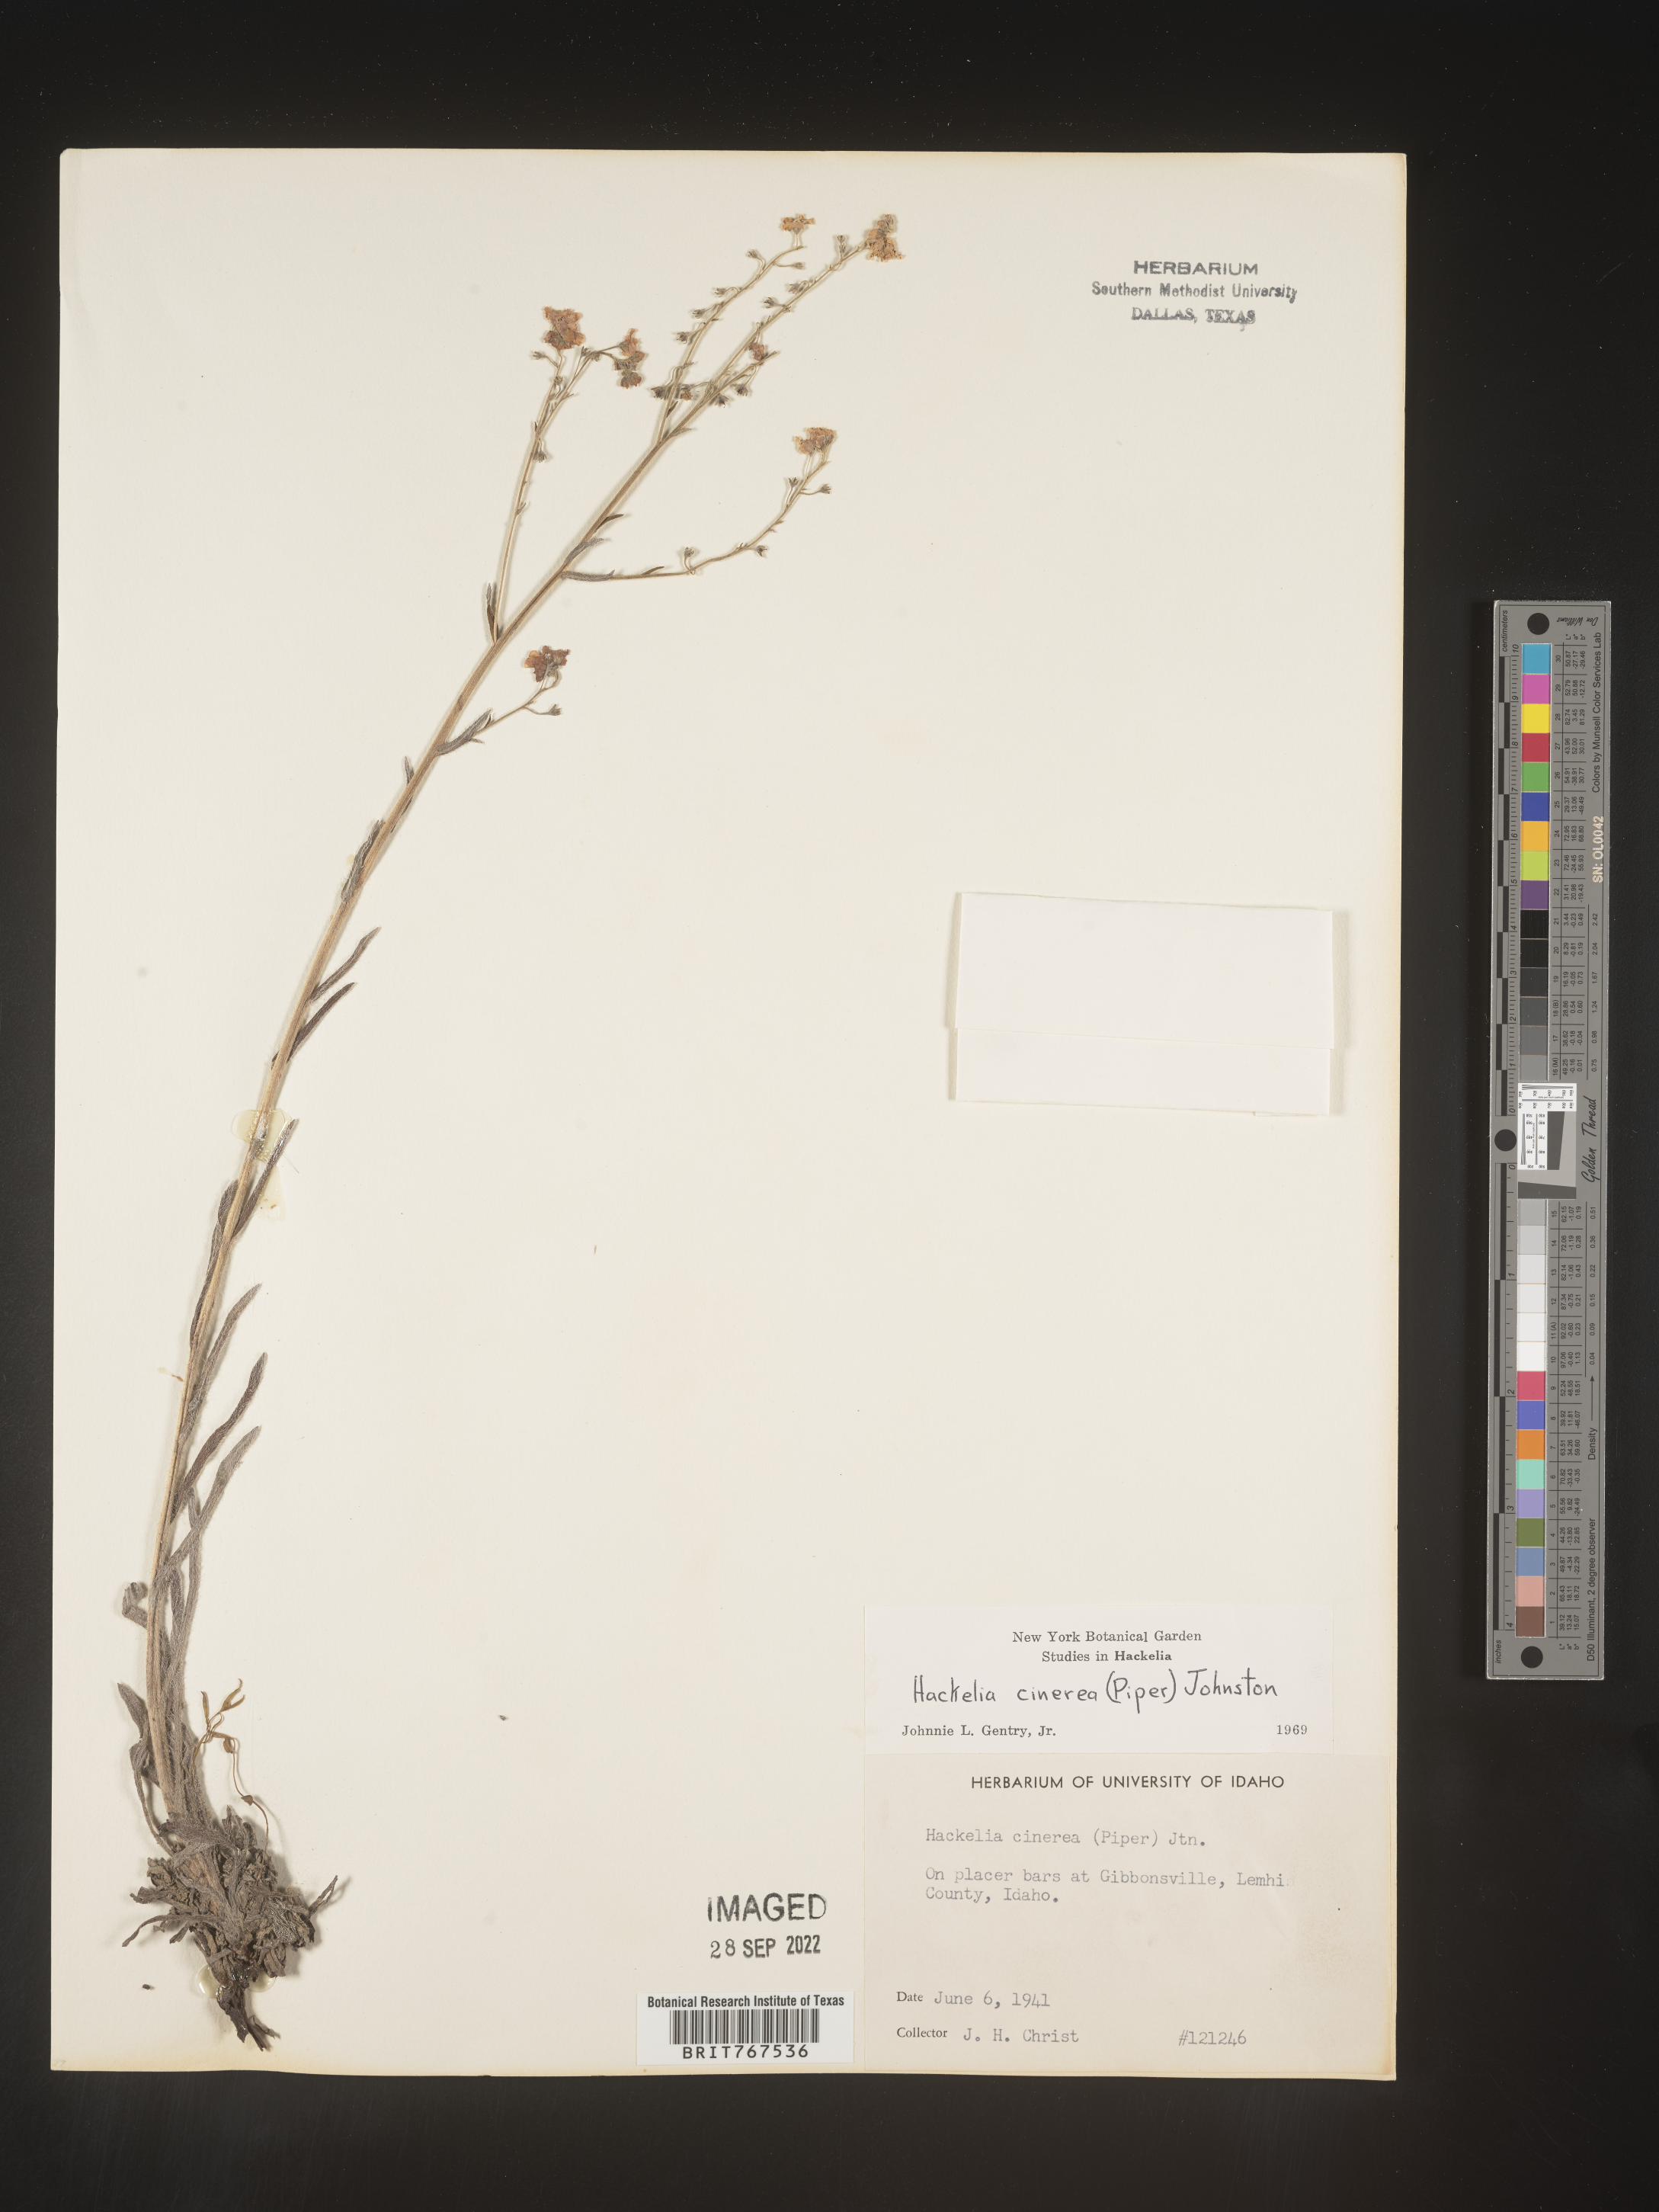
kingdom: Plantae
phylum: Tracheophyta
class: Magnoliopsida
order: Boraginales
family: Boraginaceae
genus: Hackelia
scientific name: Hackelia
